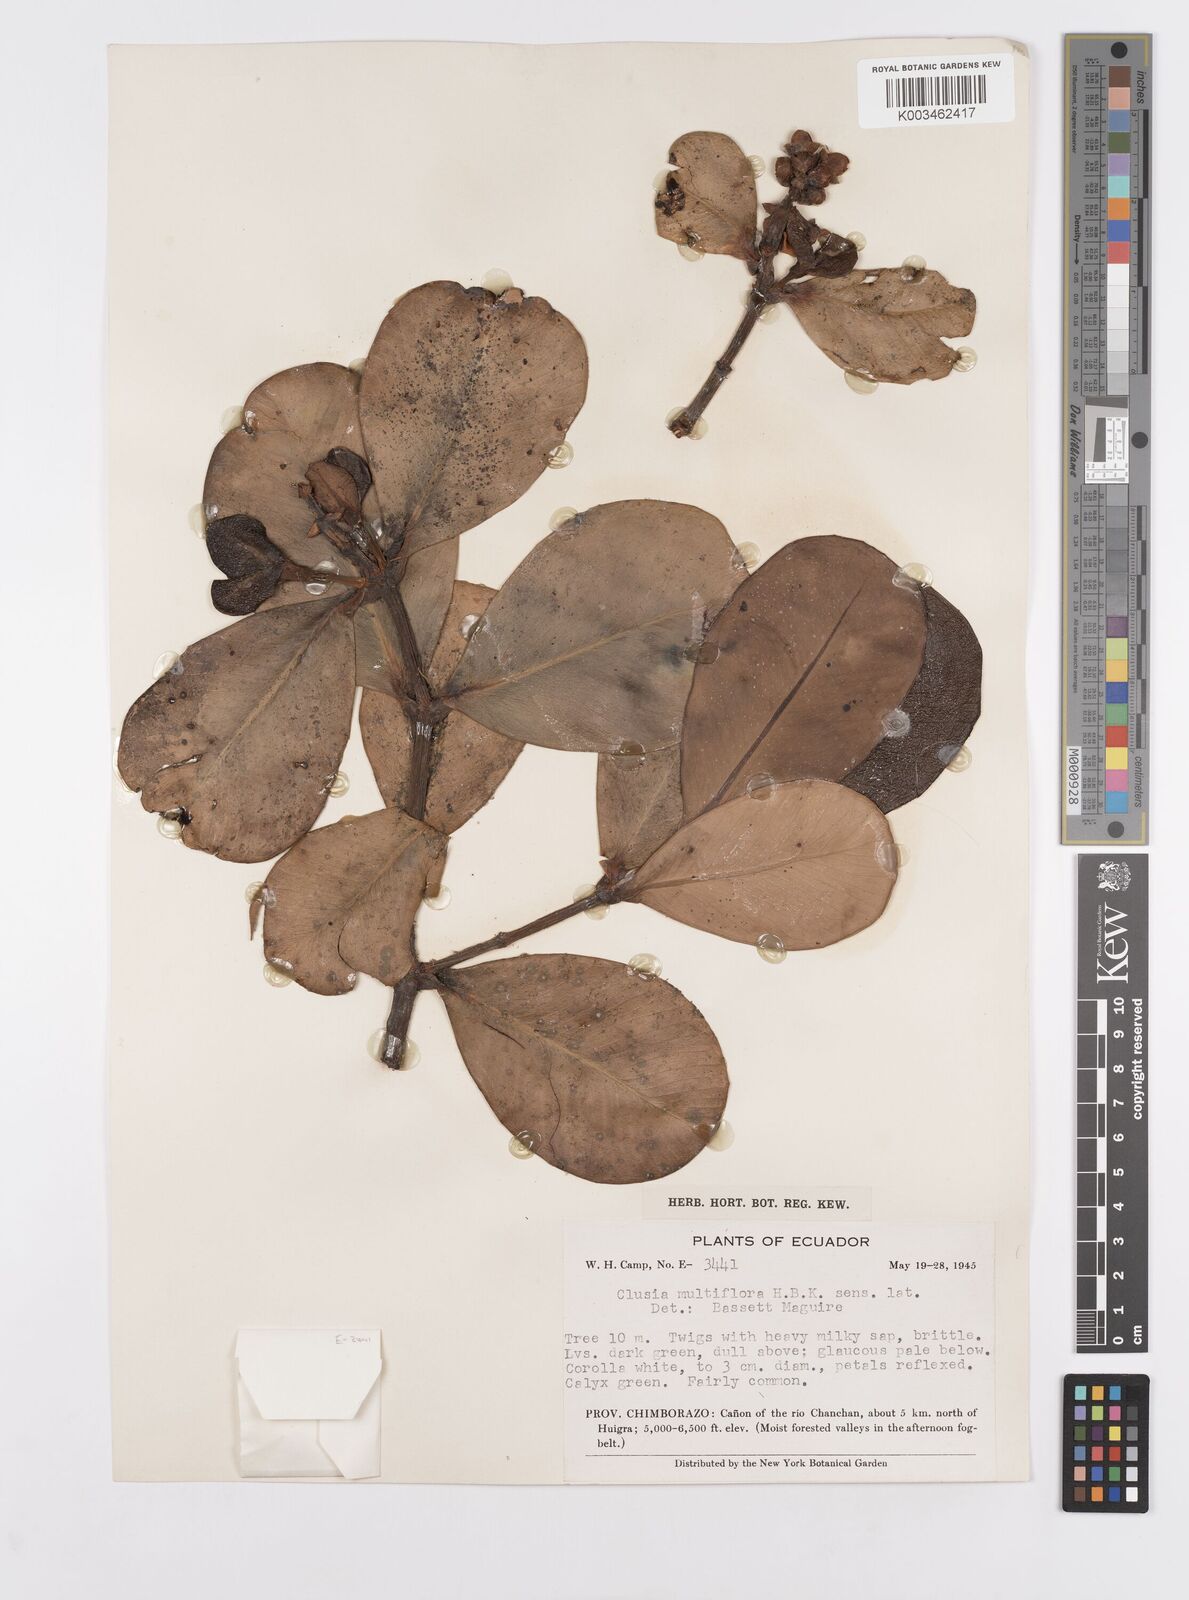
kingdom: Plantae
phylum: Tracheophyta
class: Magnoliopsida
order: Malpighiales
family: Clusiaceae
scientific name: Clusiaceae
